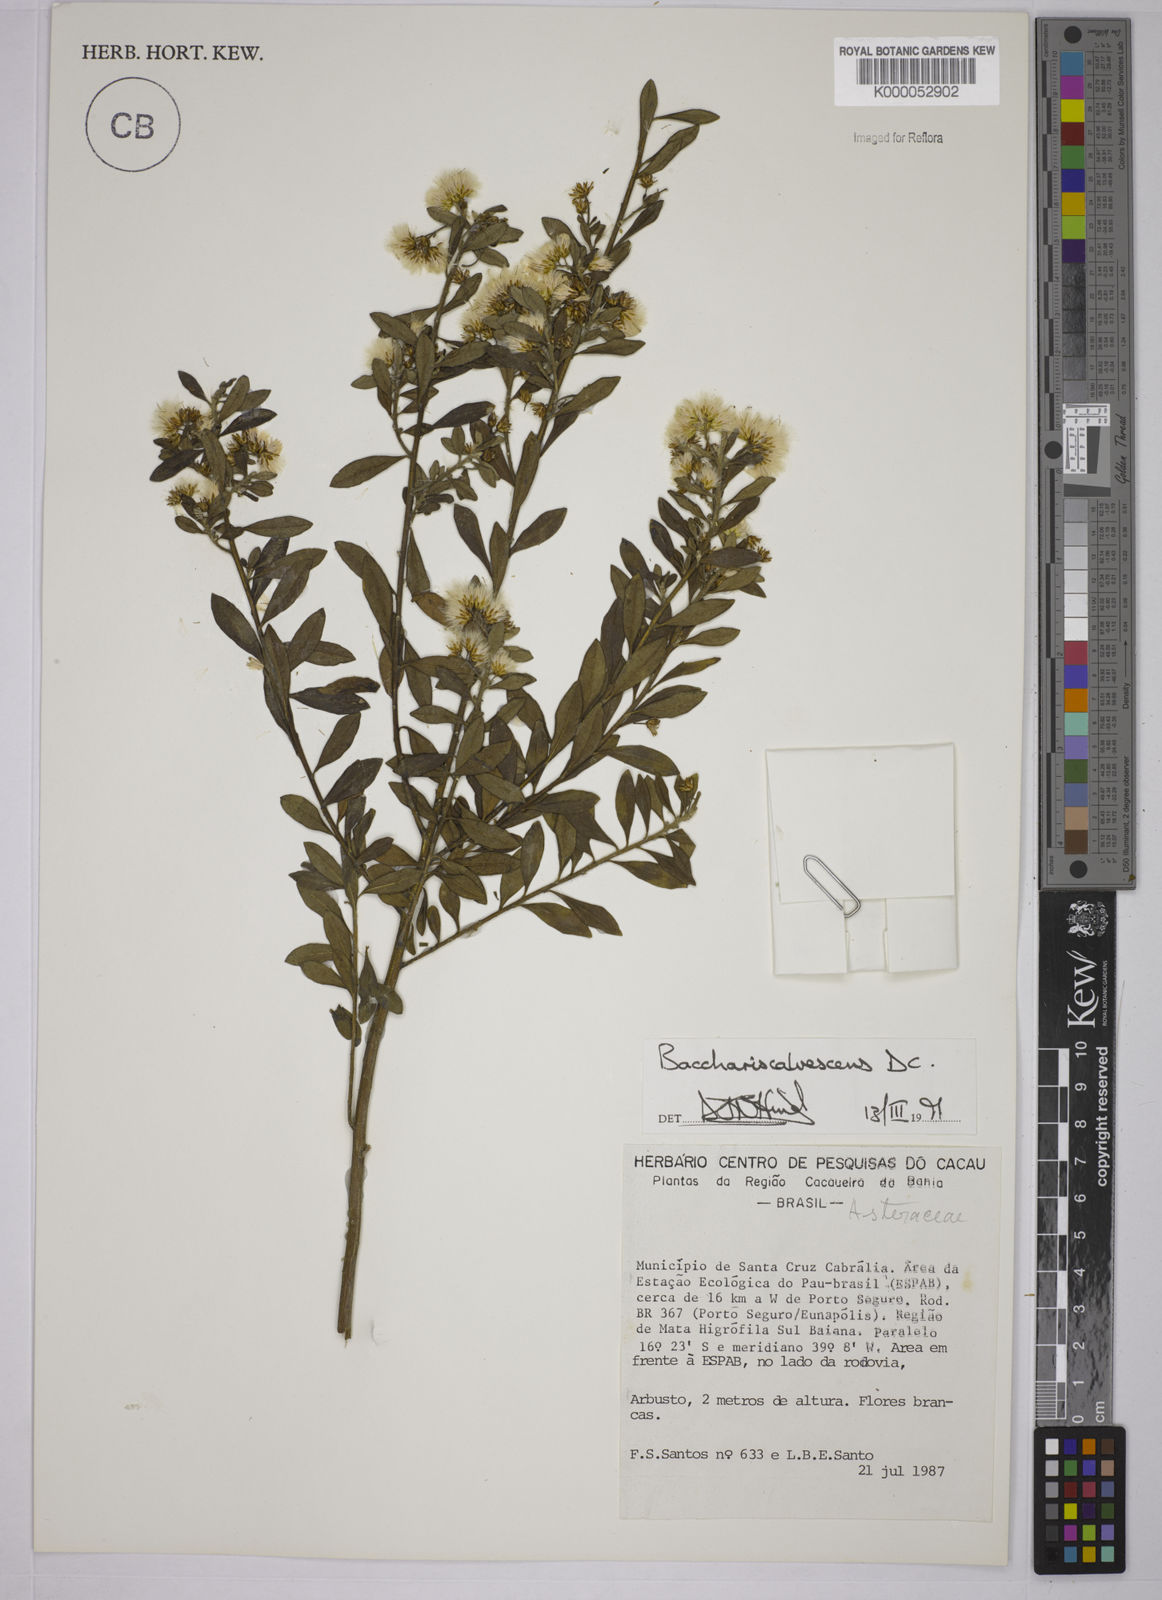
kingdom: Plantae
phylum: Tracheophyta
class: Magnoliopsida
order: Asterales
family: Asteraceae
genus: Baccharis
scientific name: Baccharis calvescens
